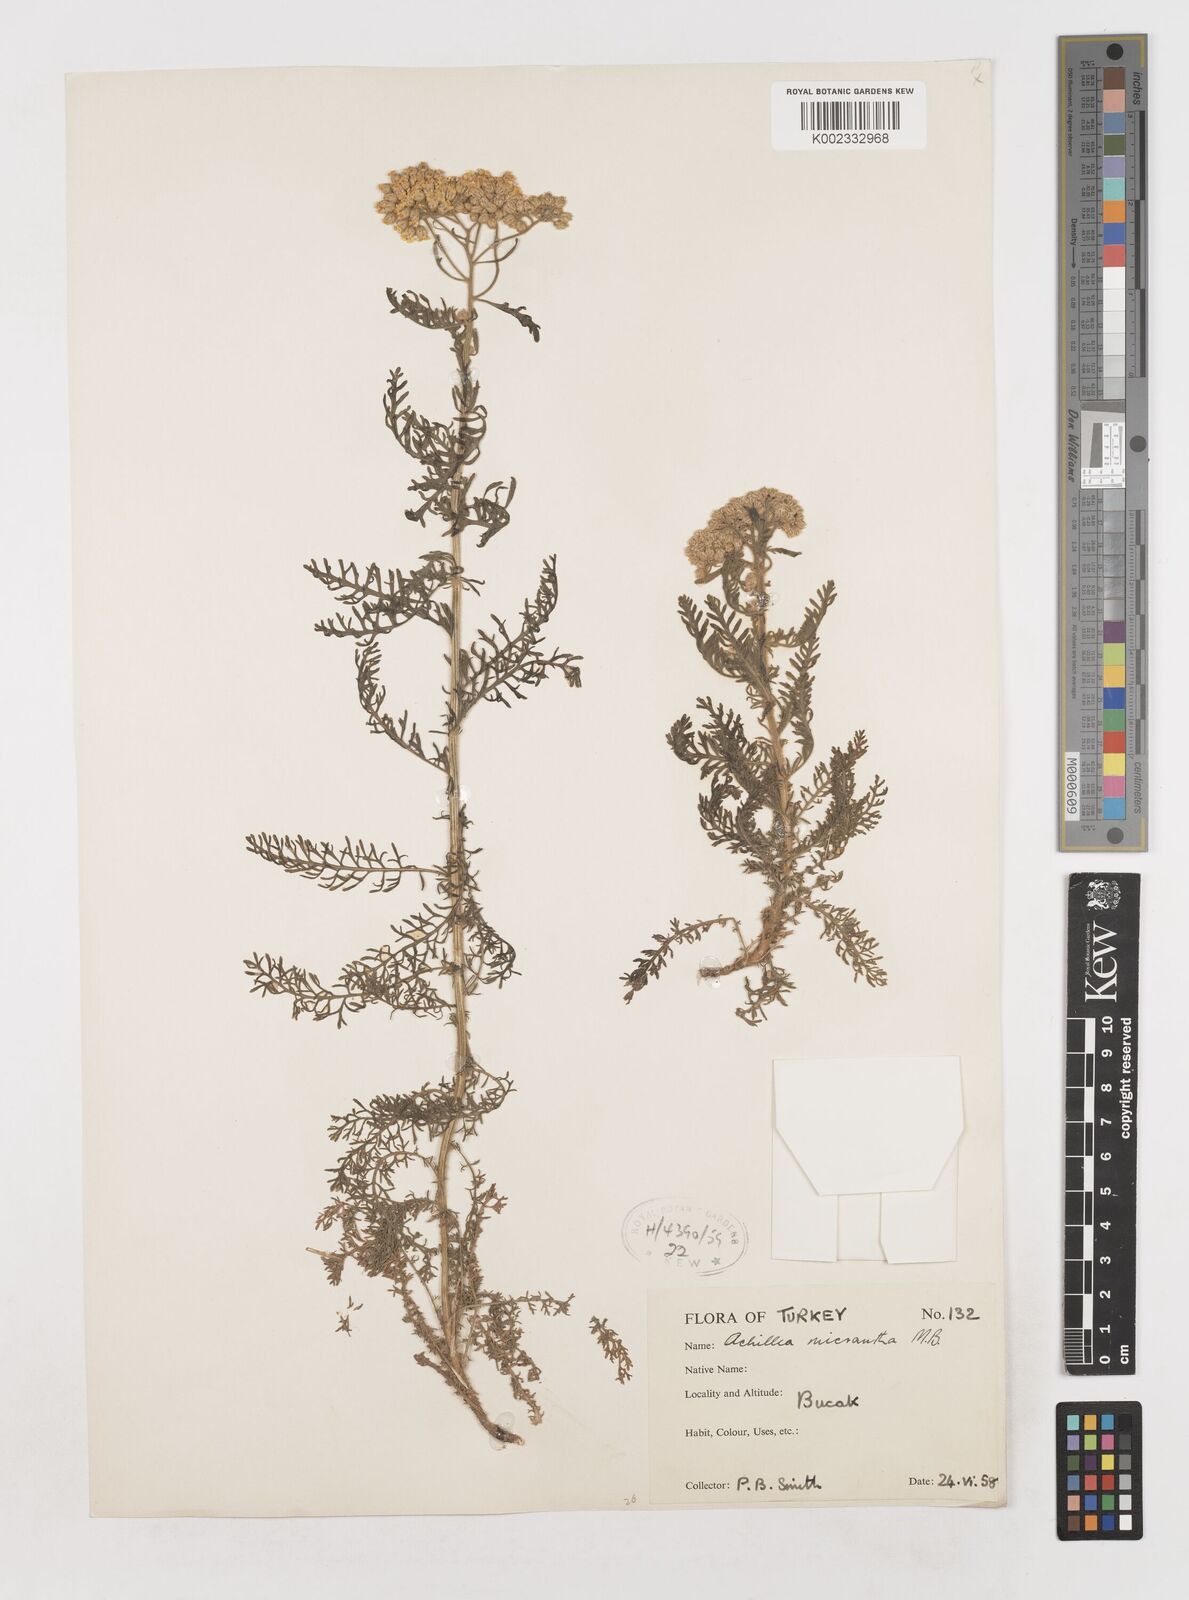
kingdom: Plantae
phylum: Tracheophyta
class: Magnoliopsida
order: Asterales
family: Asteraceae
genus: Achillea
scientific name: Achillea arabica
